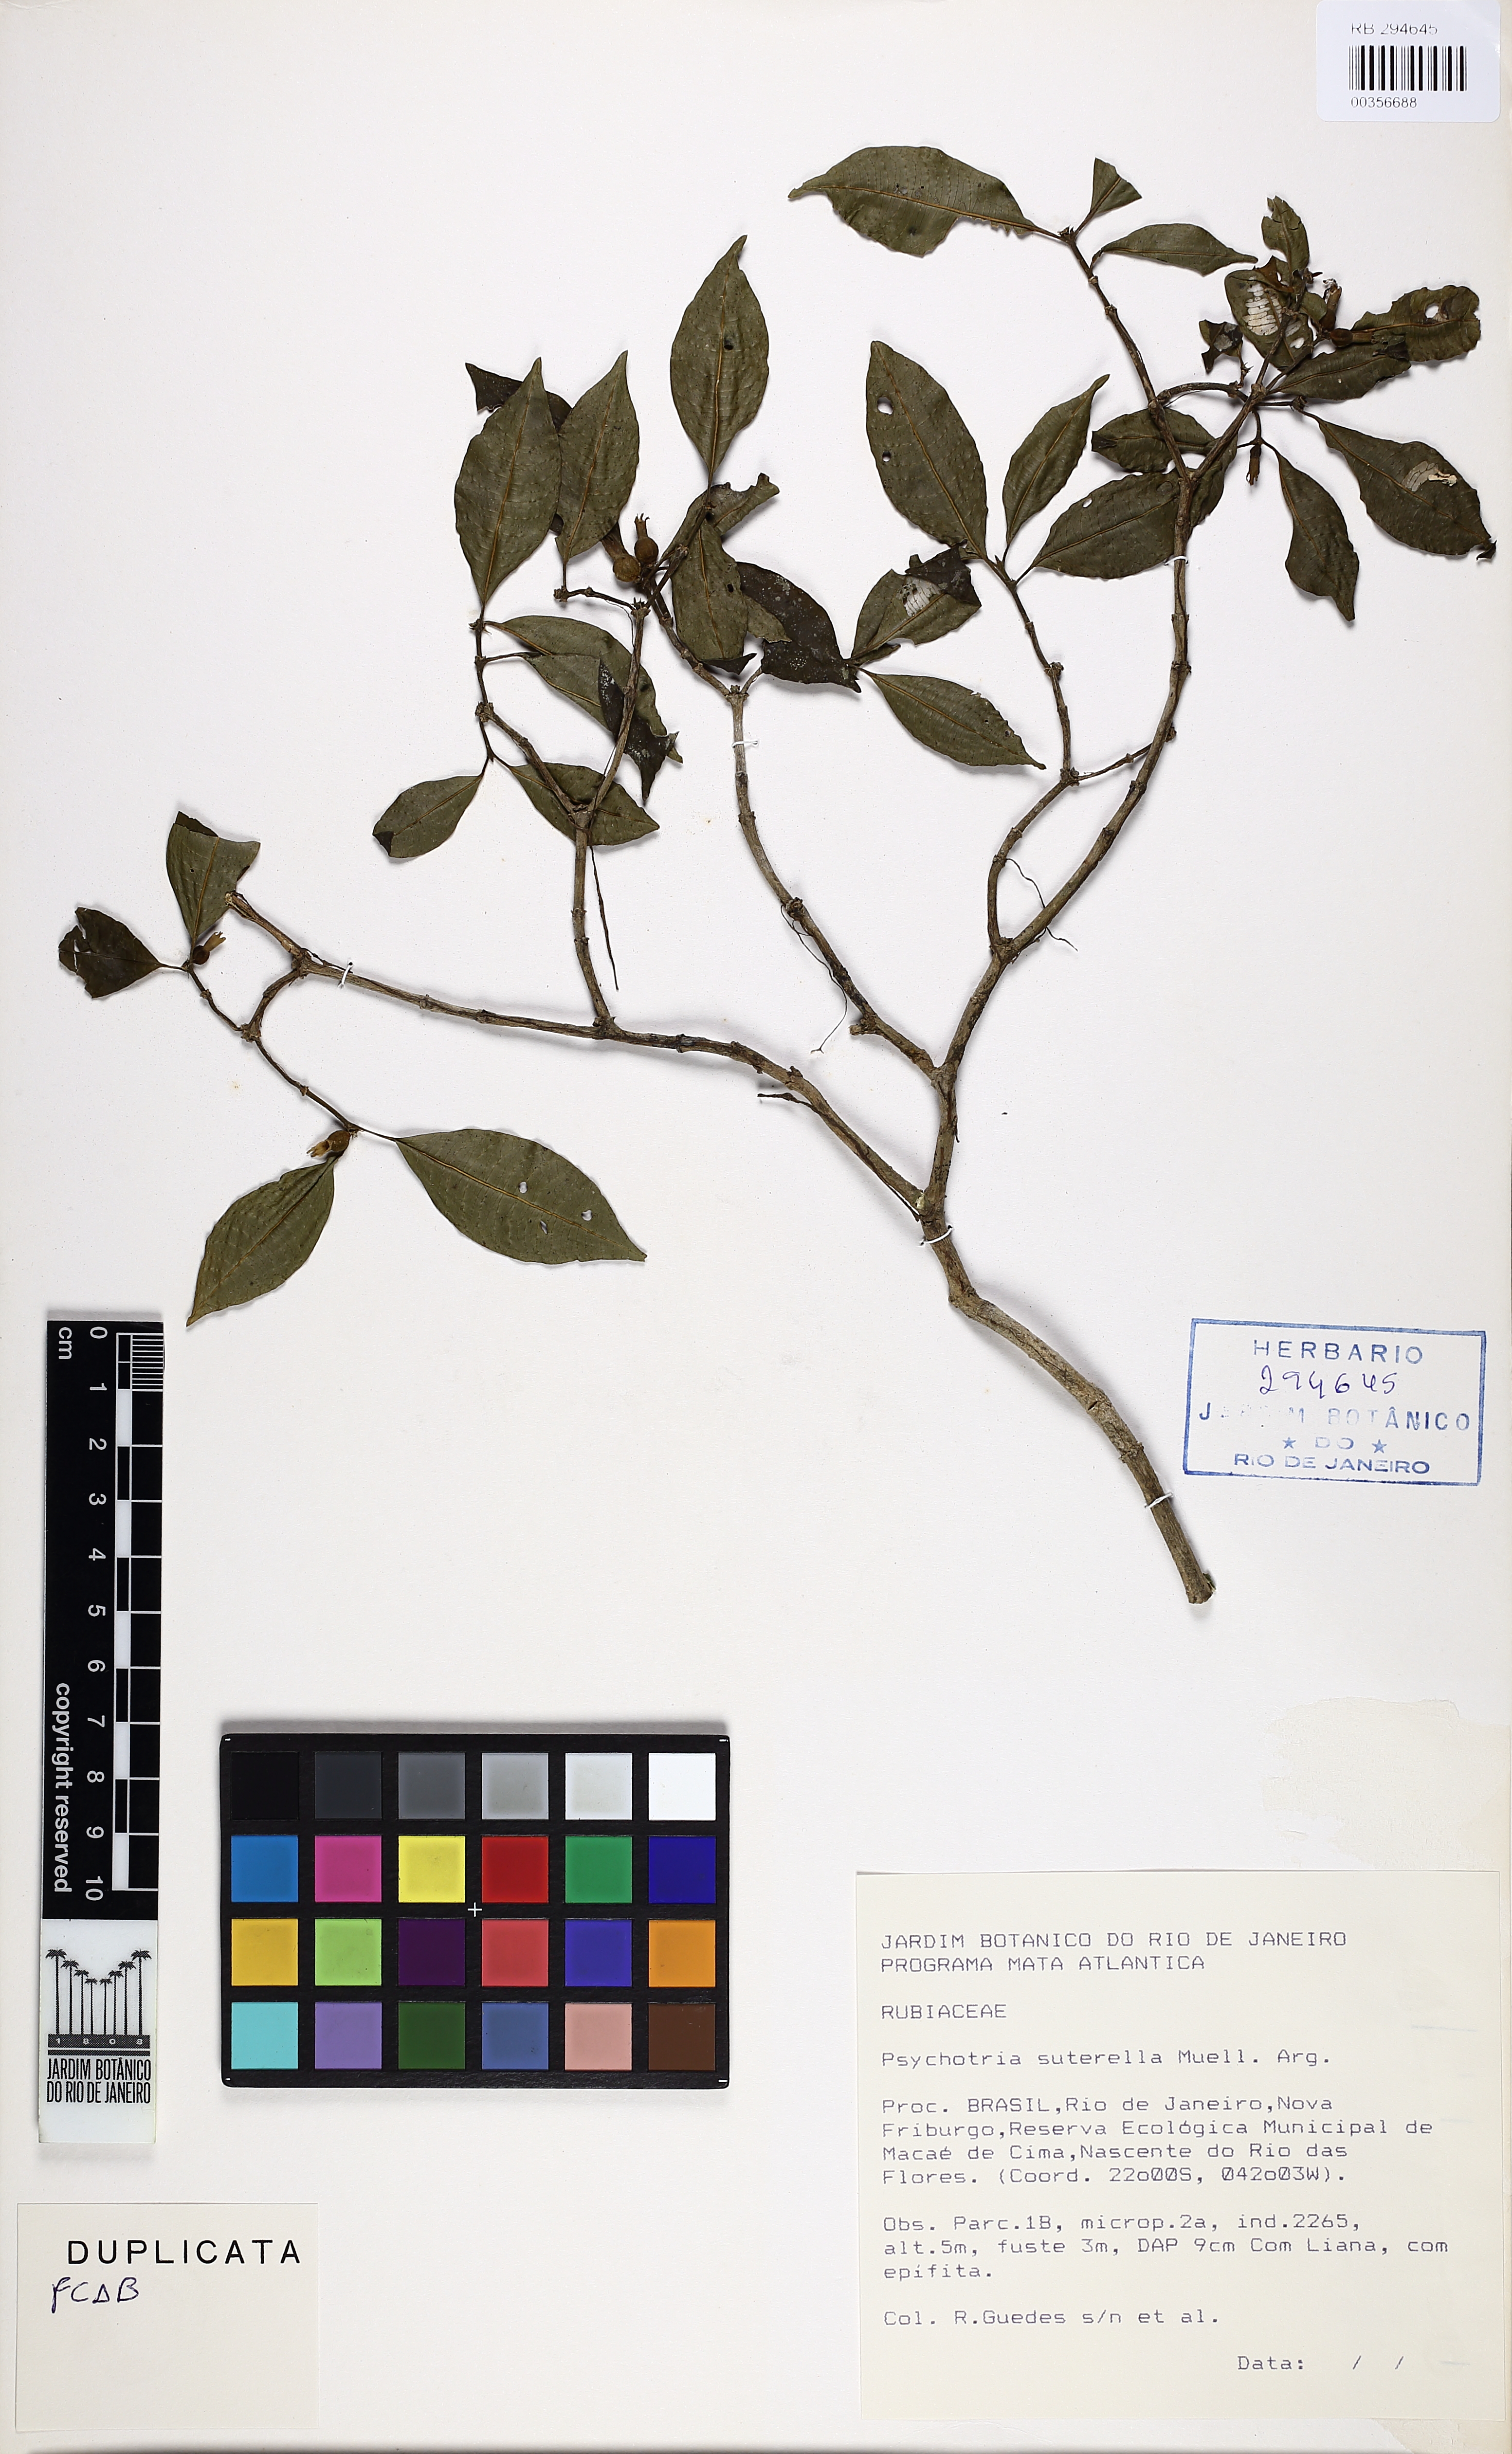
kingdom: Plantae
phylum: Tracheophyta
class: Magnoliopsida
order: Gentianales
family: Rubiaceae
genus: Psychotria
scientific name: Psychotria suterella
